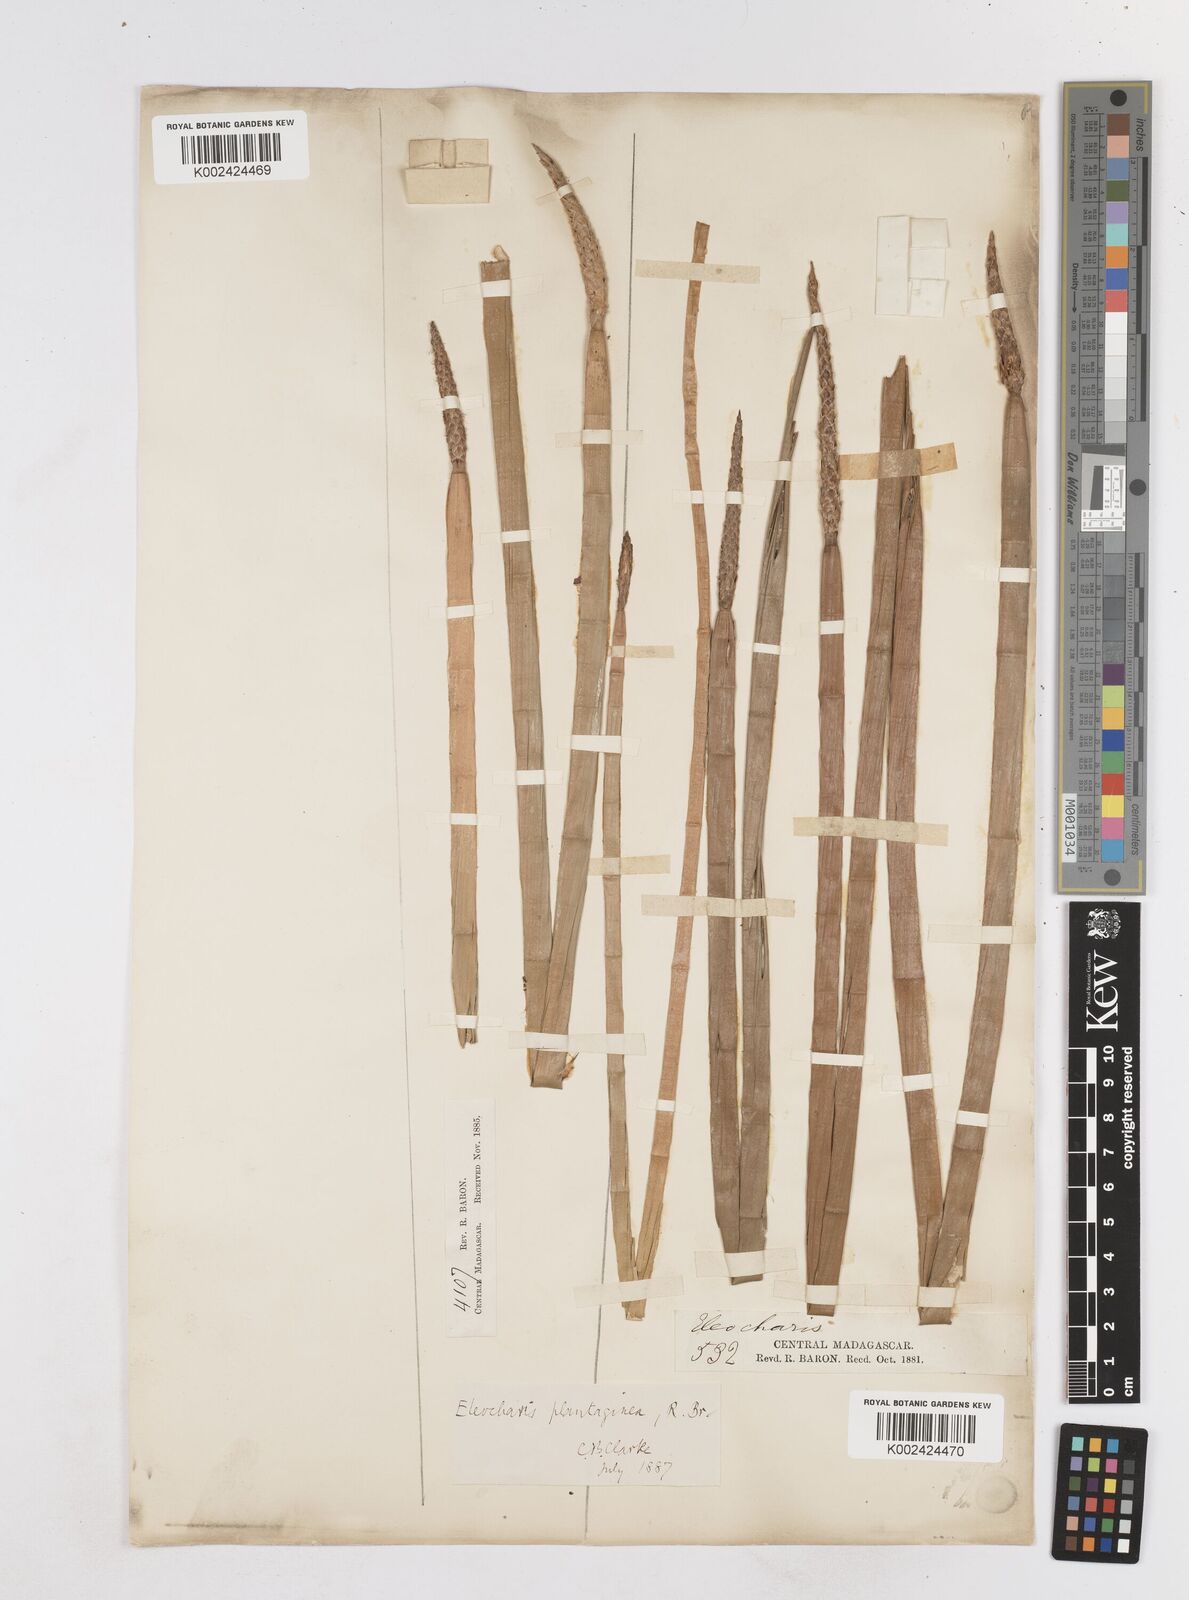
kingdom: Plantae
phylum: Tracheophyta
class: Liliopsida
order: Poales
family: Cyperaceae
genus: Eleocharis
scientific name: Eleocharis dulcis
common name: Chinese water chestnut
